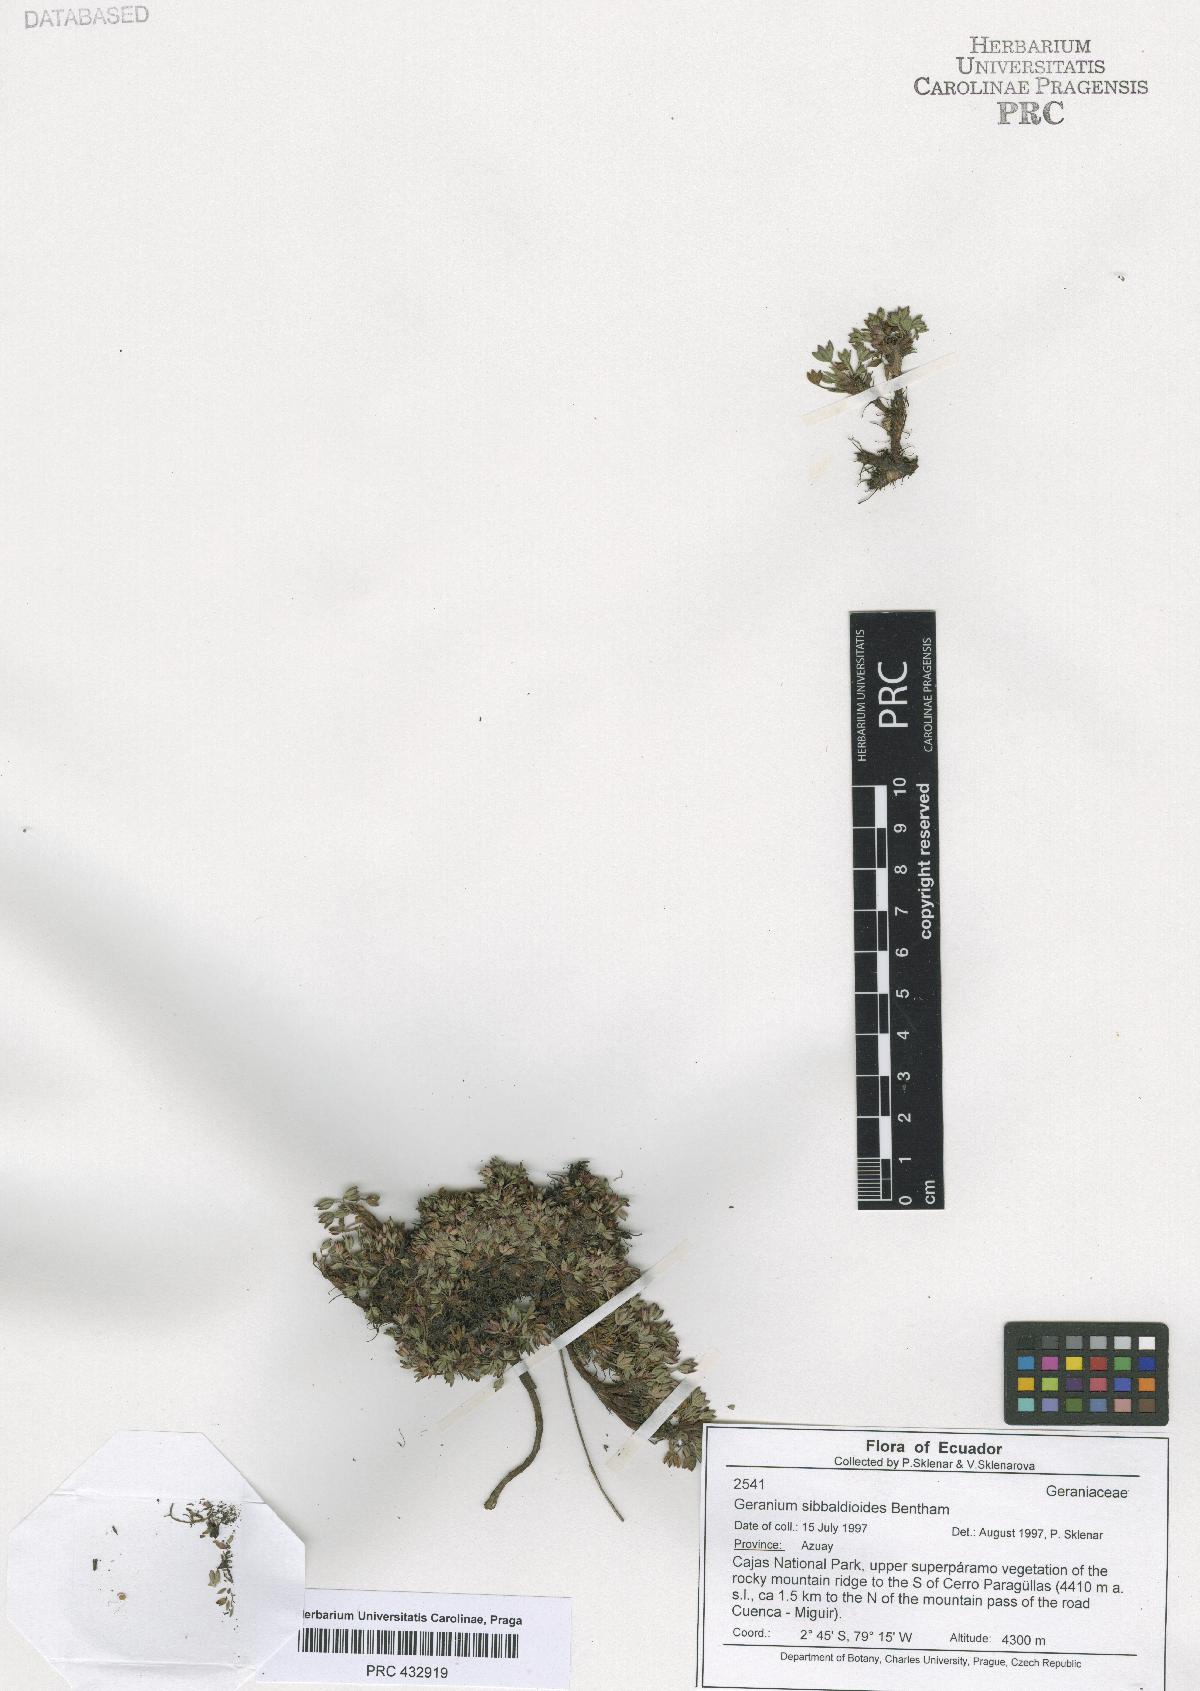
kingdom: Plantae
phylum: Tracheophyta
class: Magnoliopsida
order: Geraniales
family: Geraniaceae
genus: Geranium
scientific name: Geranium sibbaldioides
